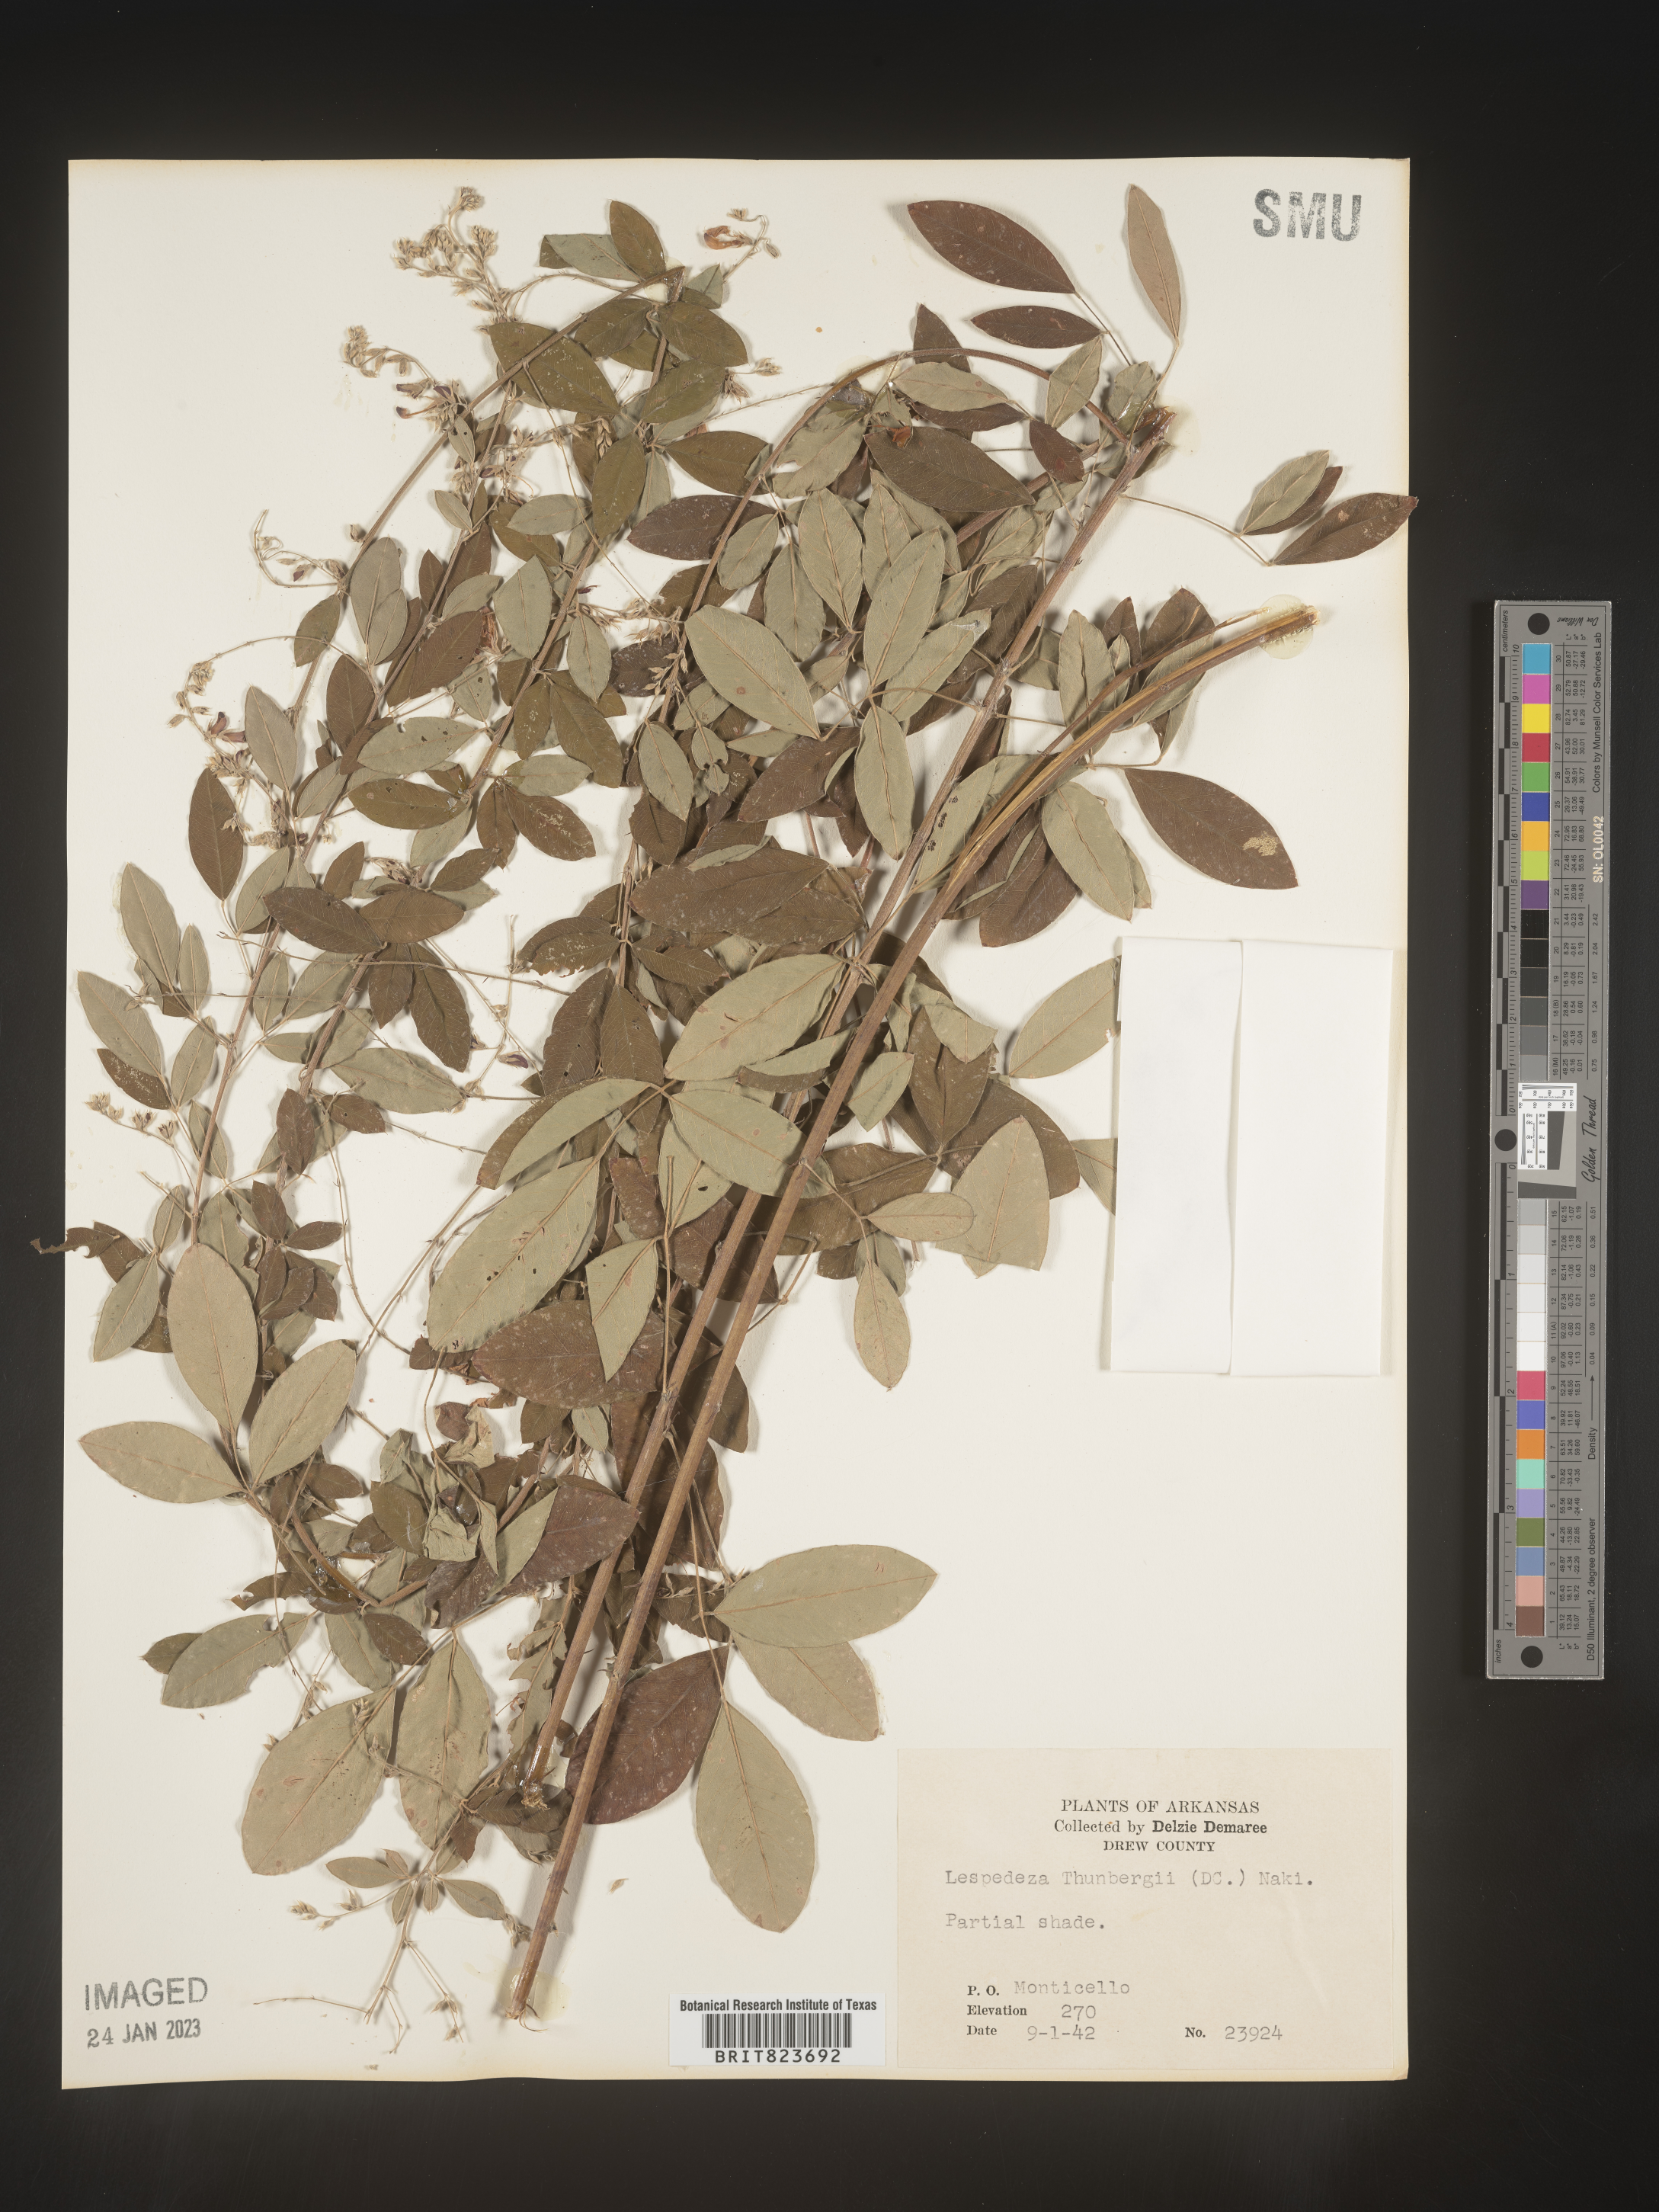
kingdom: Plantae
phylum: Tracheophyta
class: Magnoliopsida
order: Fabales
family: Fabaceae
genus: Lespedeza
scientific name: Lespedeza
